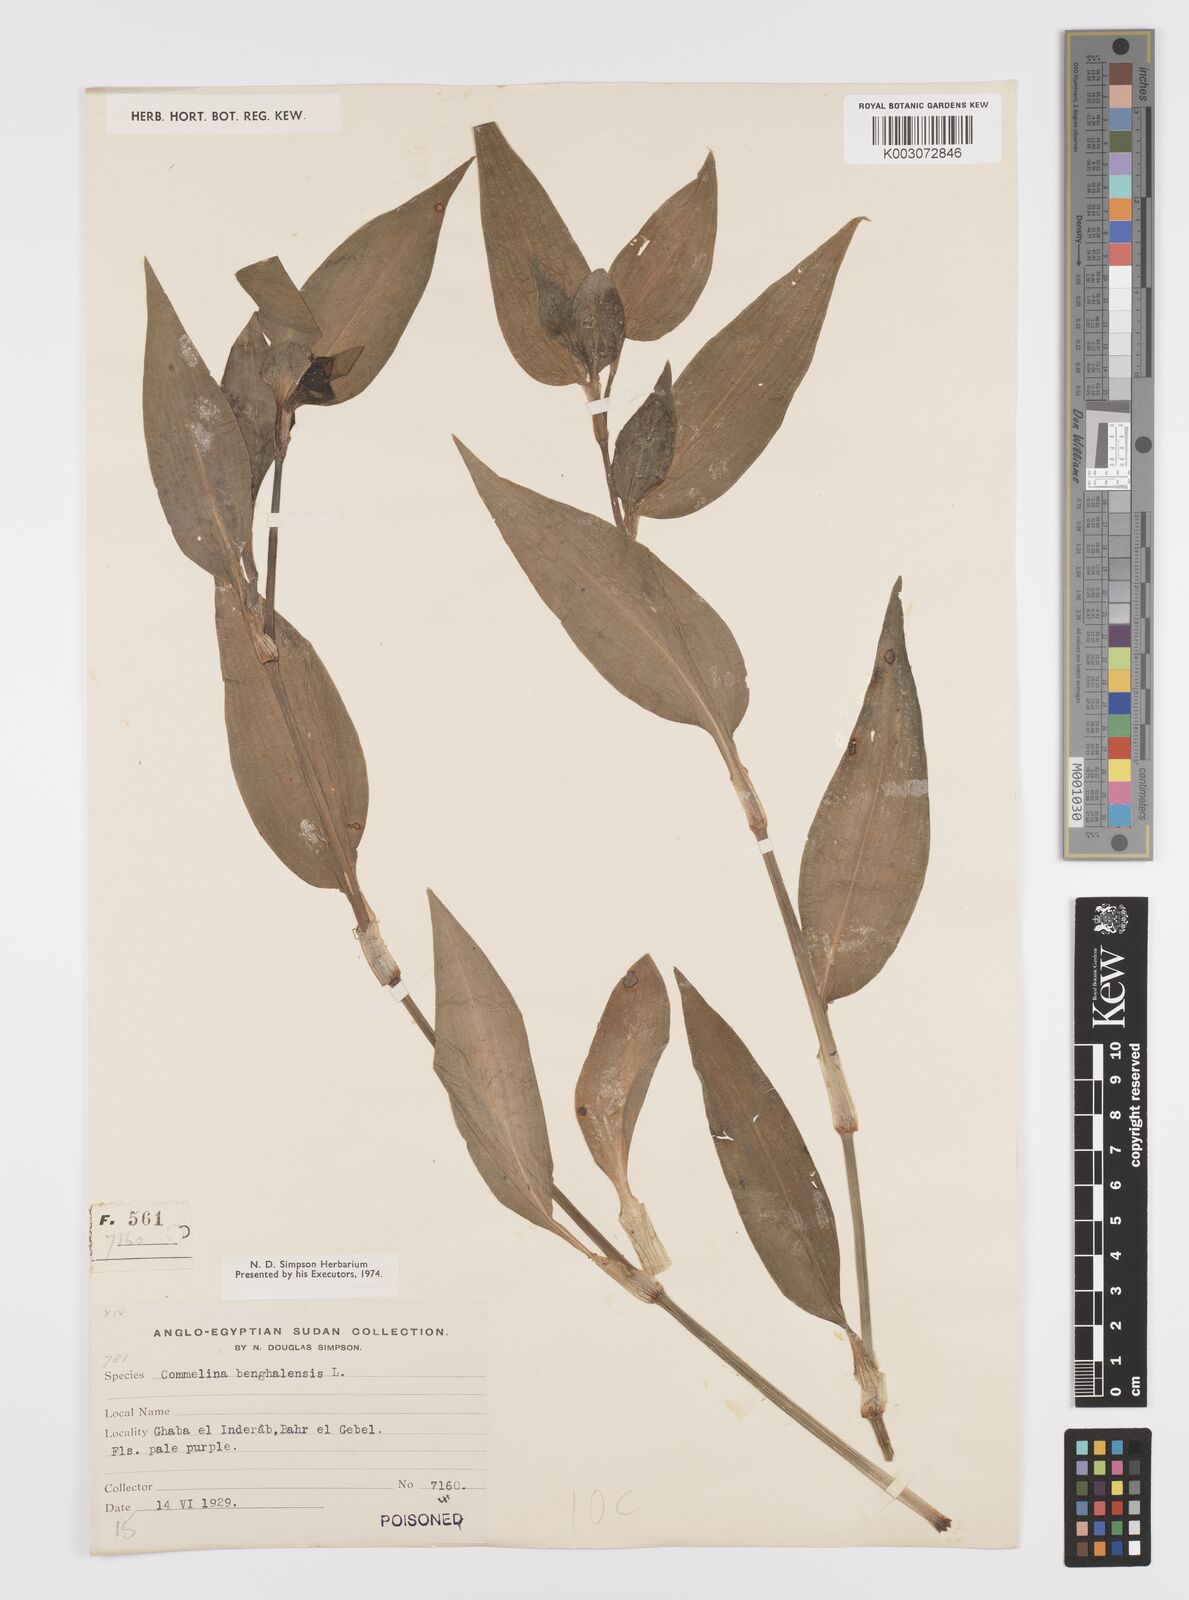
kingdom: Plantae
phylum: Tracheophyta
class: Liliopsida
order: Commelinales
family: Commelinaceae
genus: Commelina
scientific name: Commelina benghalensis
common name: Jio
